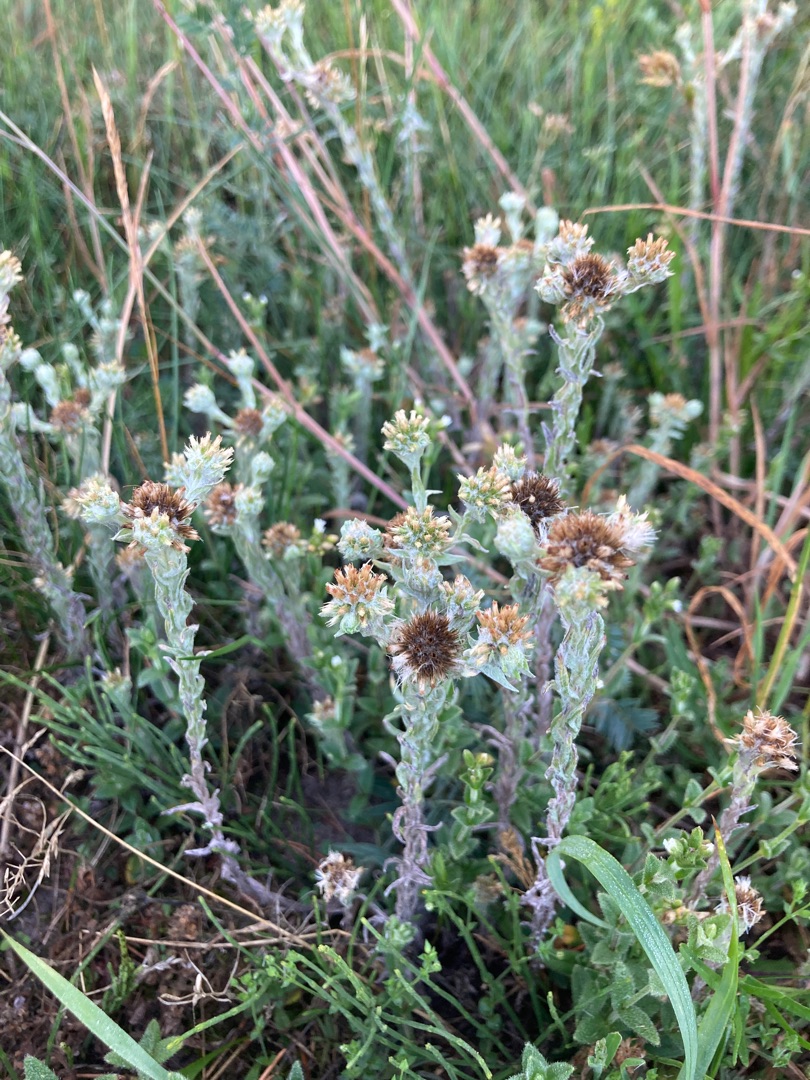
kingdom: Plantae
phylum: Tracheophyta
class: Magnoliopsida
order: Asterales
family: Asteraceae
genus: Filago
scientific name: Filago germanica
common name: Kugle-museurt
